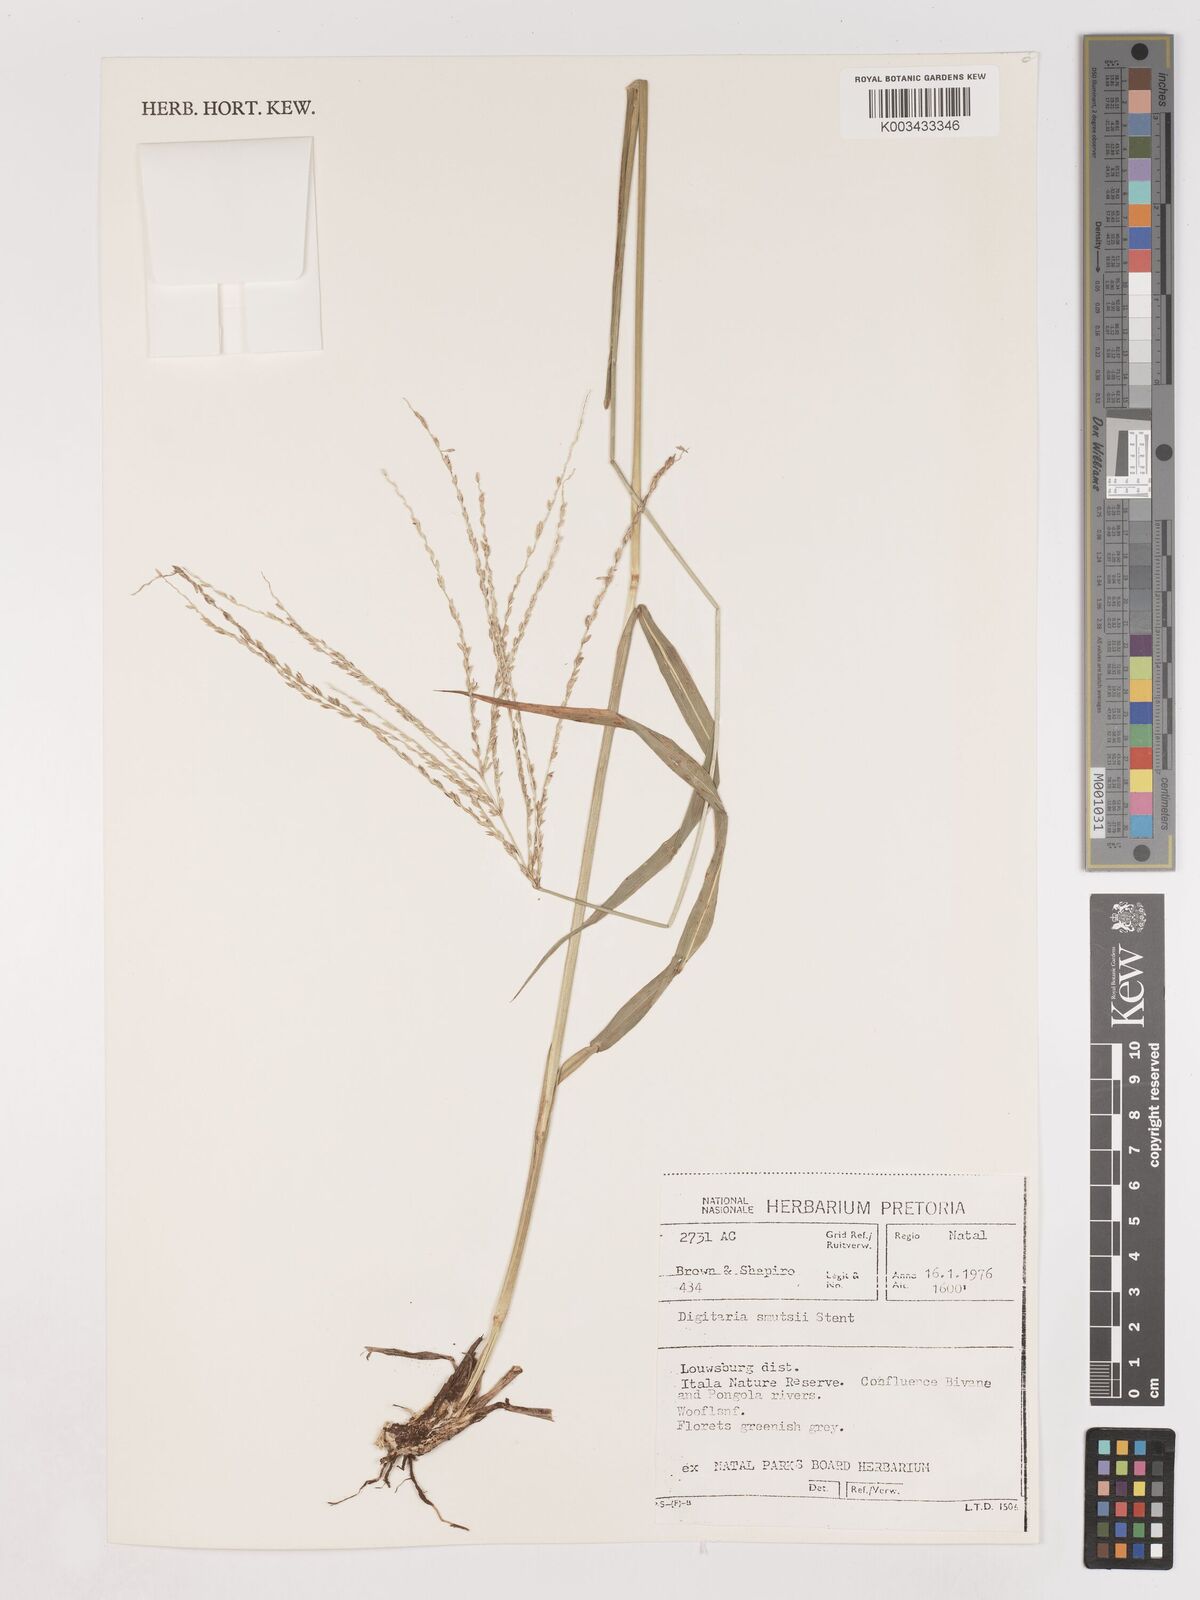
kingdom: Plantae
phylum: Tracheophyta
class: Liliopsida
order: Poales
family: Poaceae
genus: Digitaria
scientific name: Digitaria eriantha
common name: Digitgrass
